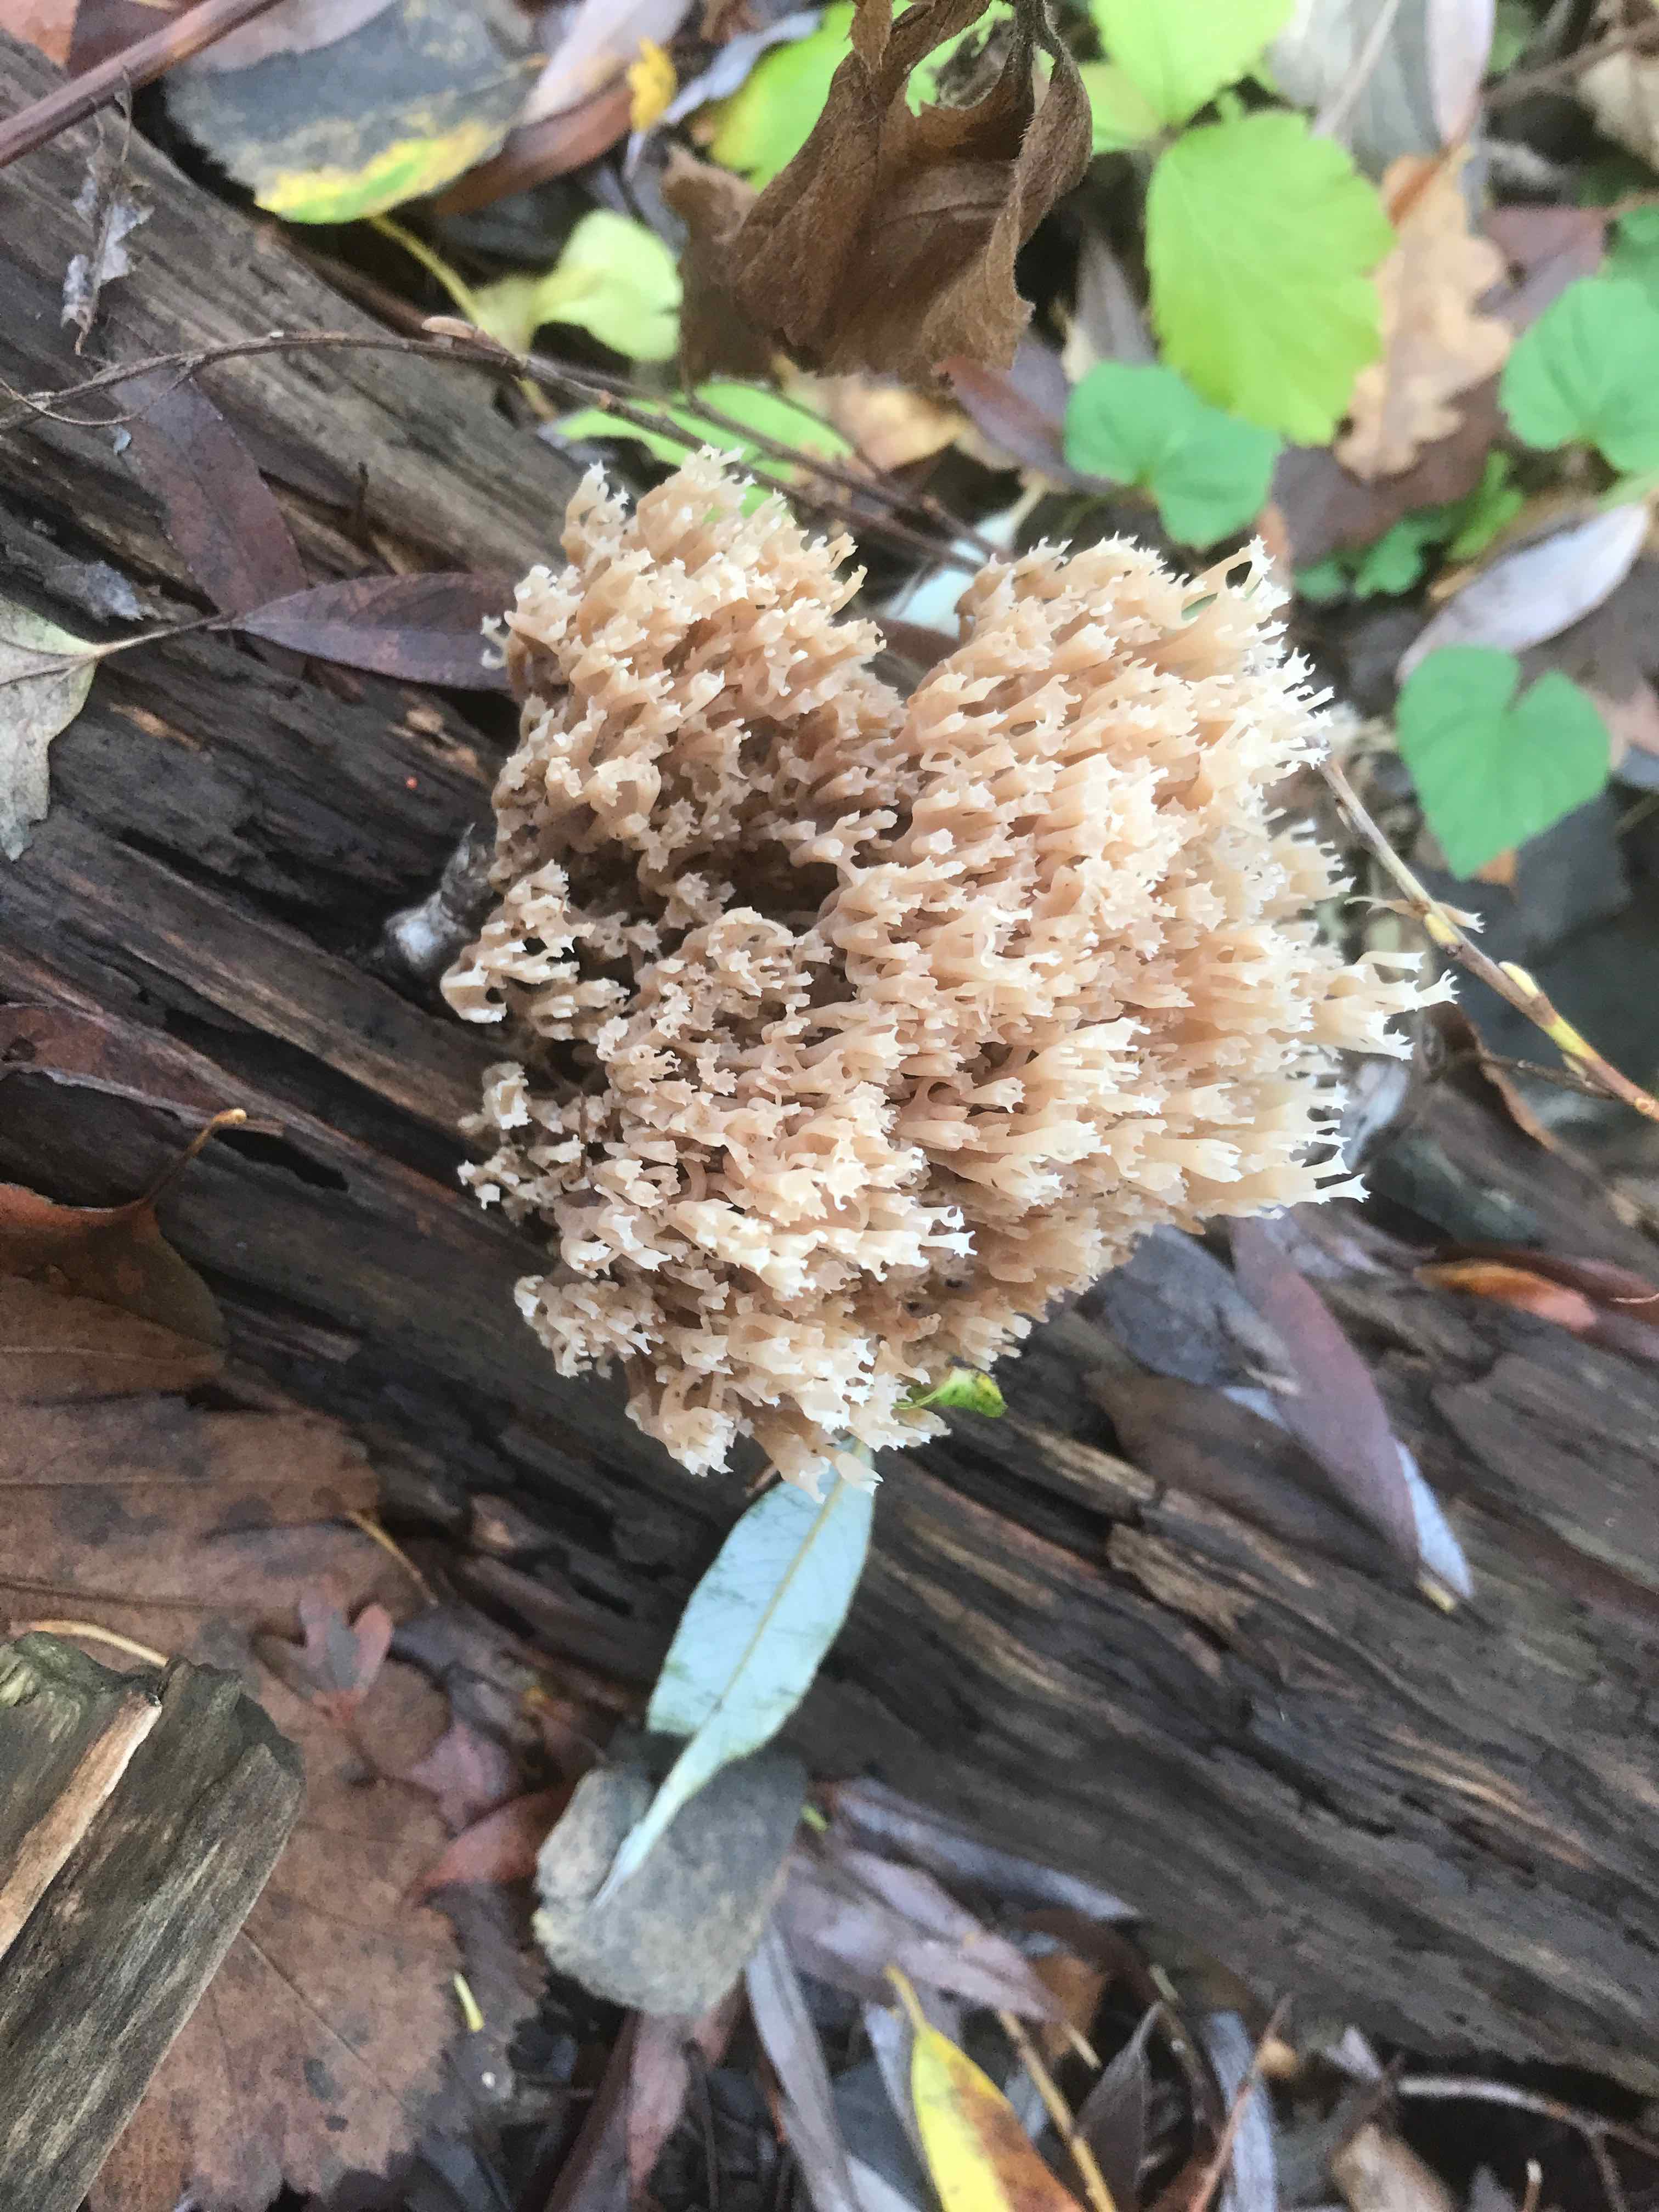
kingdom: Fungi
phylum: Basidiomycota
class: Agaricomycetes
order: Russulales
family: Auriscalpiaceae
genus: Artomyces
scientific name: Artomyces pyxidatus
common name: kandelabersvamp
